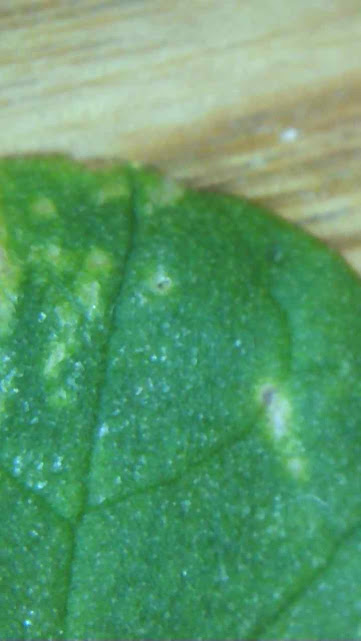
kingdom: Fungi
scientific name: Fungi
